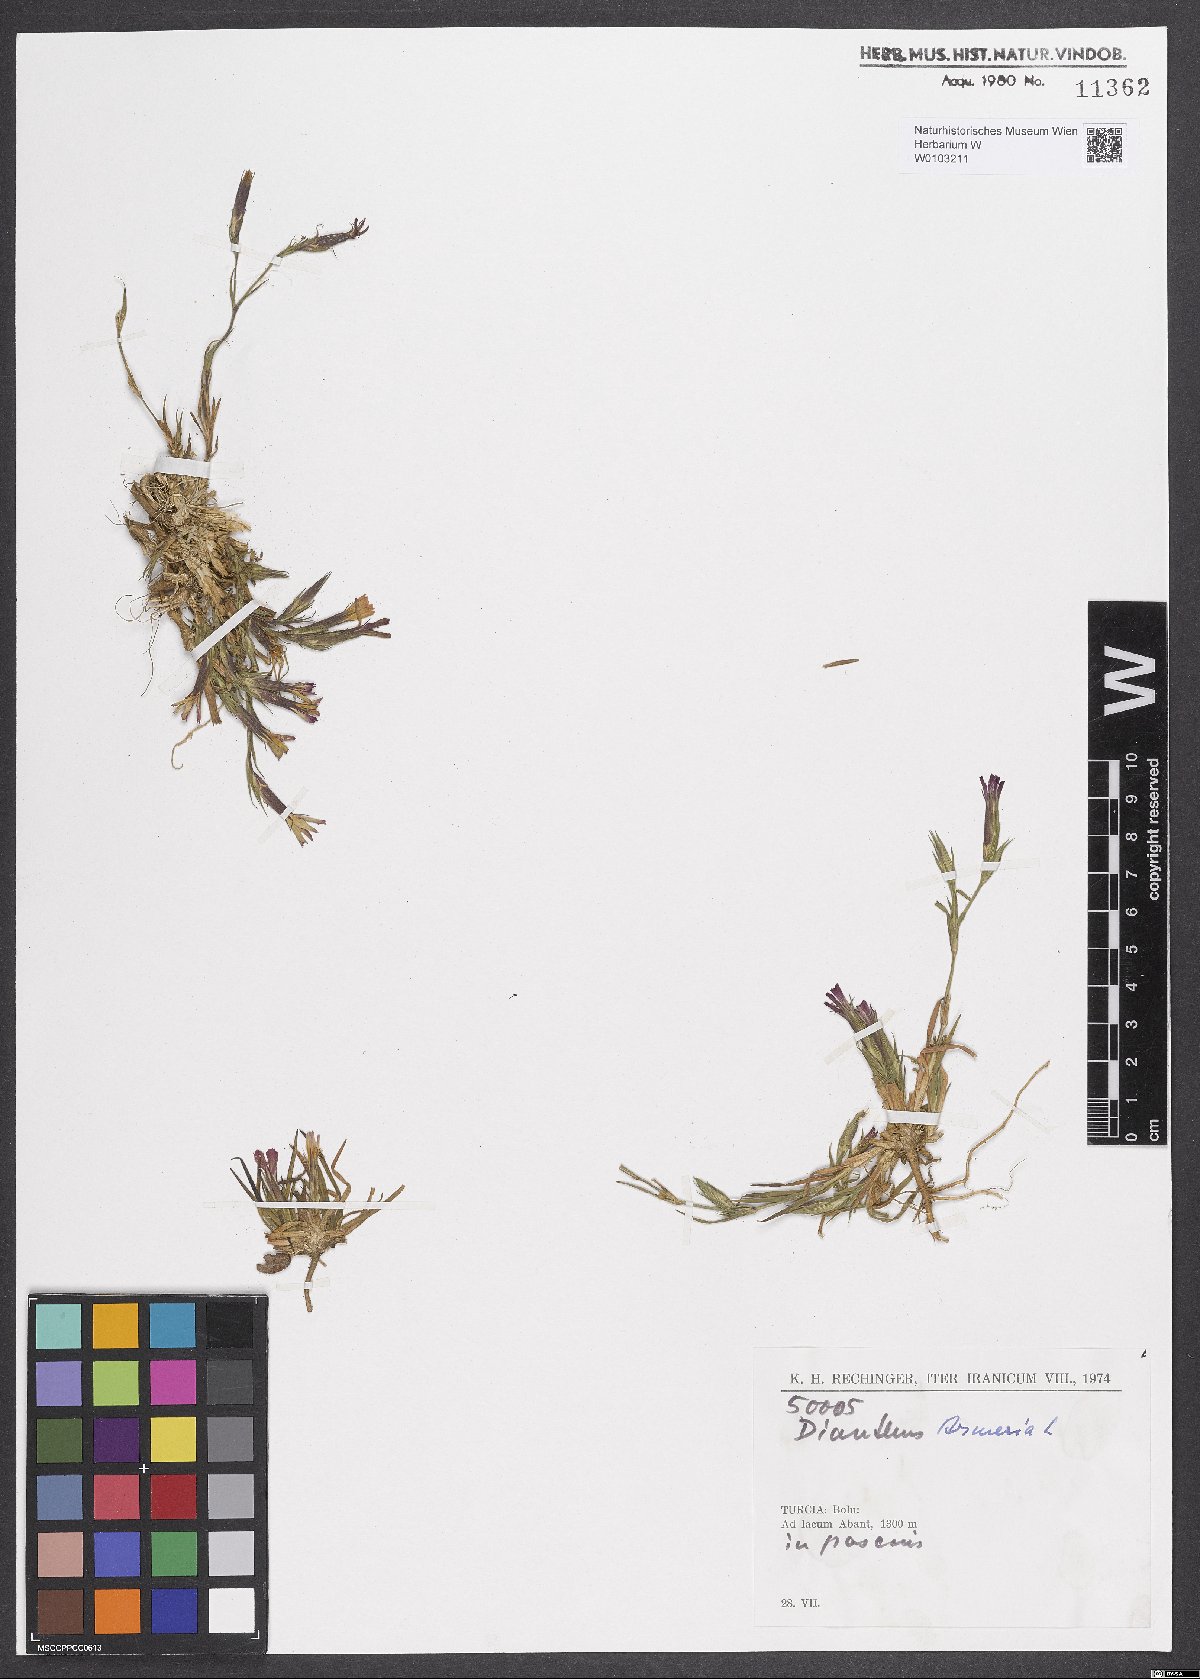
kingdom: Plantae
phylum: Tracheophyta
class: Magnoliopsida
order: Caryophyllales
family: Caryophyllaceae
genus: Dianthus
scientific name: Dianthus armeria
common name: Deptford pink
